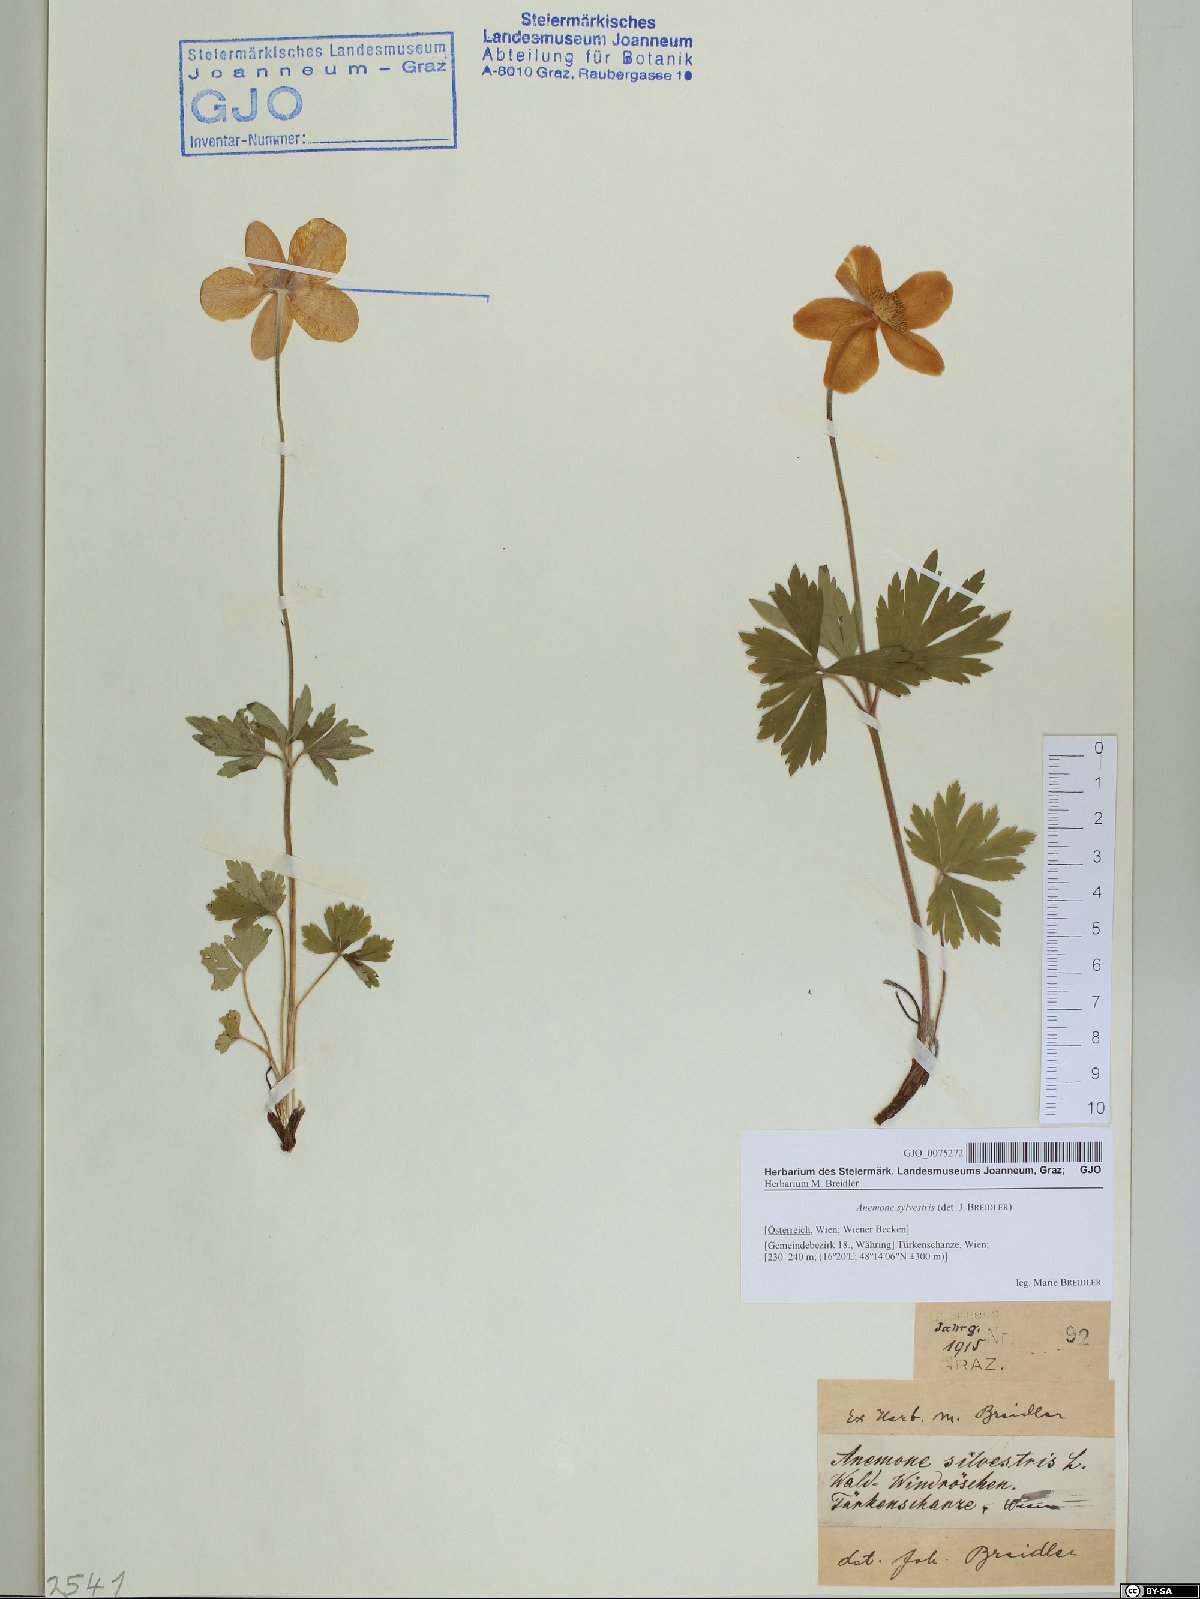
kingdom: Plantae
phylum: Tracheophyta
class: Magnoliopsida
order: Ranunculales
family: Ranunculaceae
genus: Anemone
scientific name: Anemone sylvestris
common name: Snowdrop anemone
